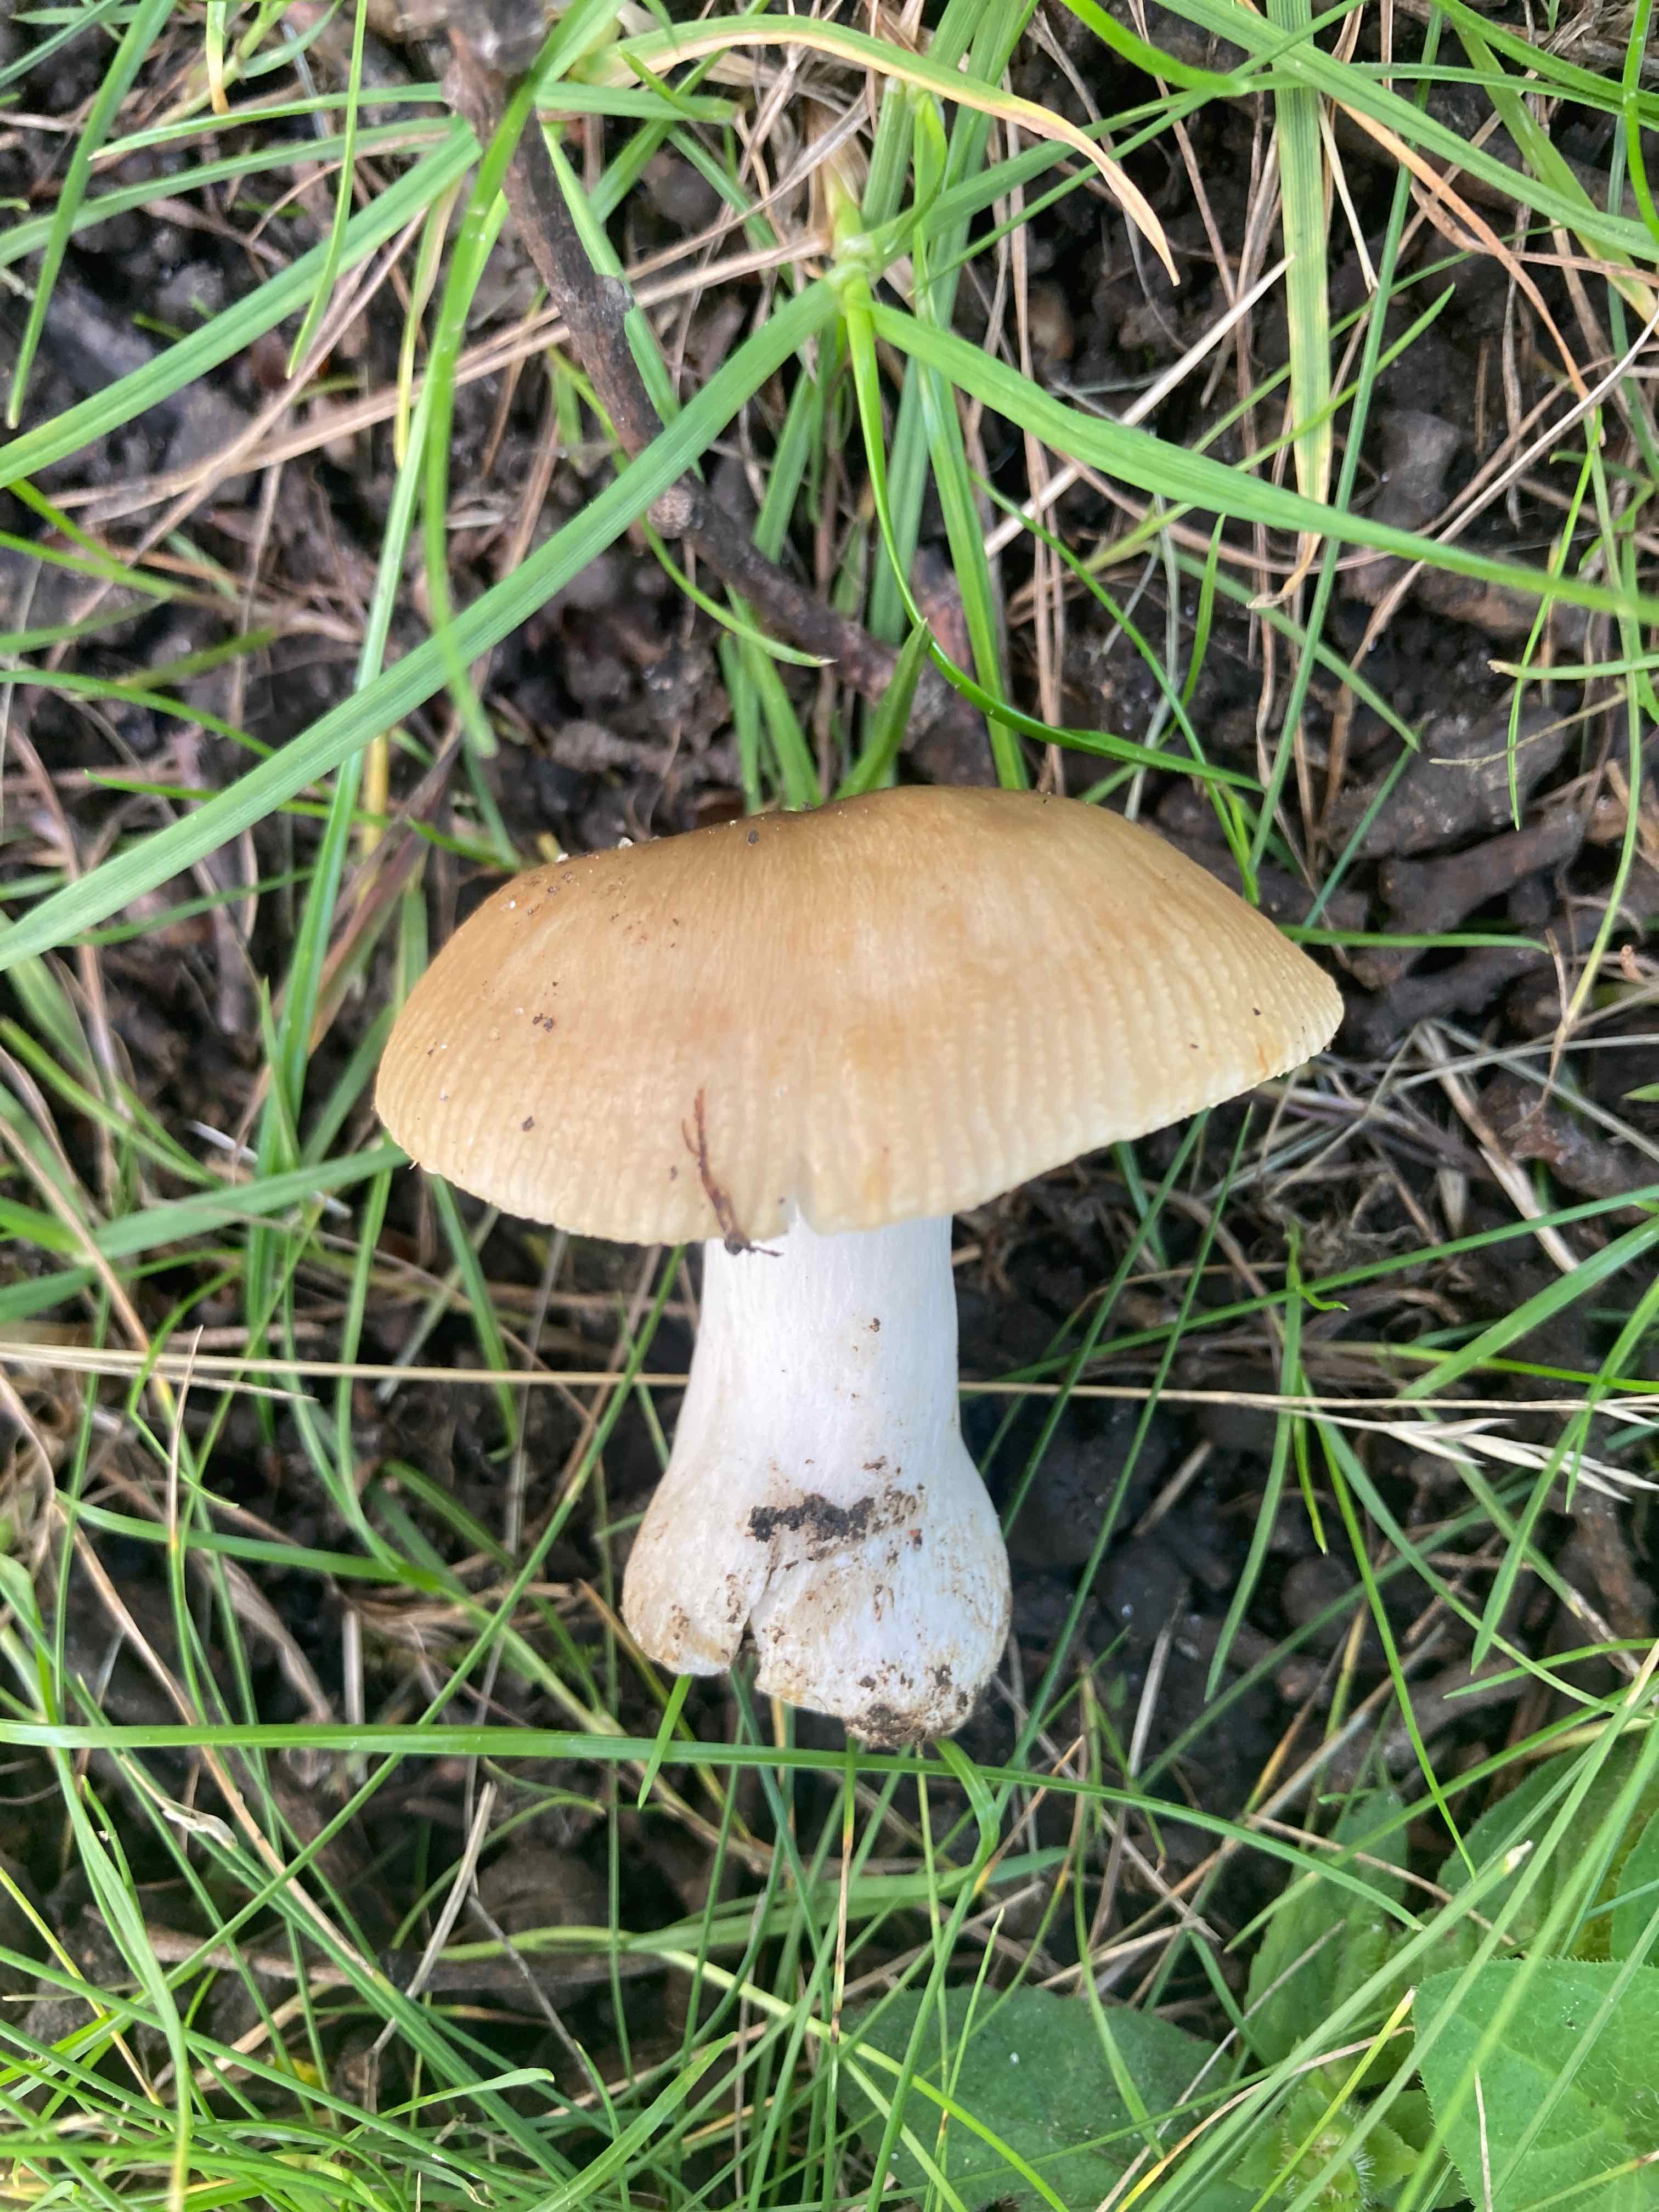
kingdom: Fungi
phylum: Basidiomycota
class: Agaricomycetes
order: Russulales
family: Russulaceae
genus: Russula
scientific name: Russula recondita
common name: mild kam-skørhat
